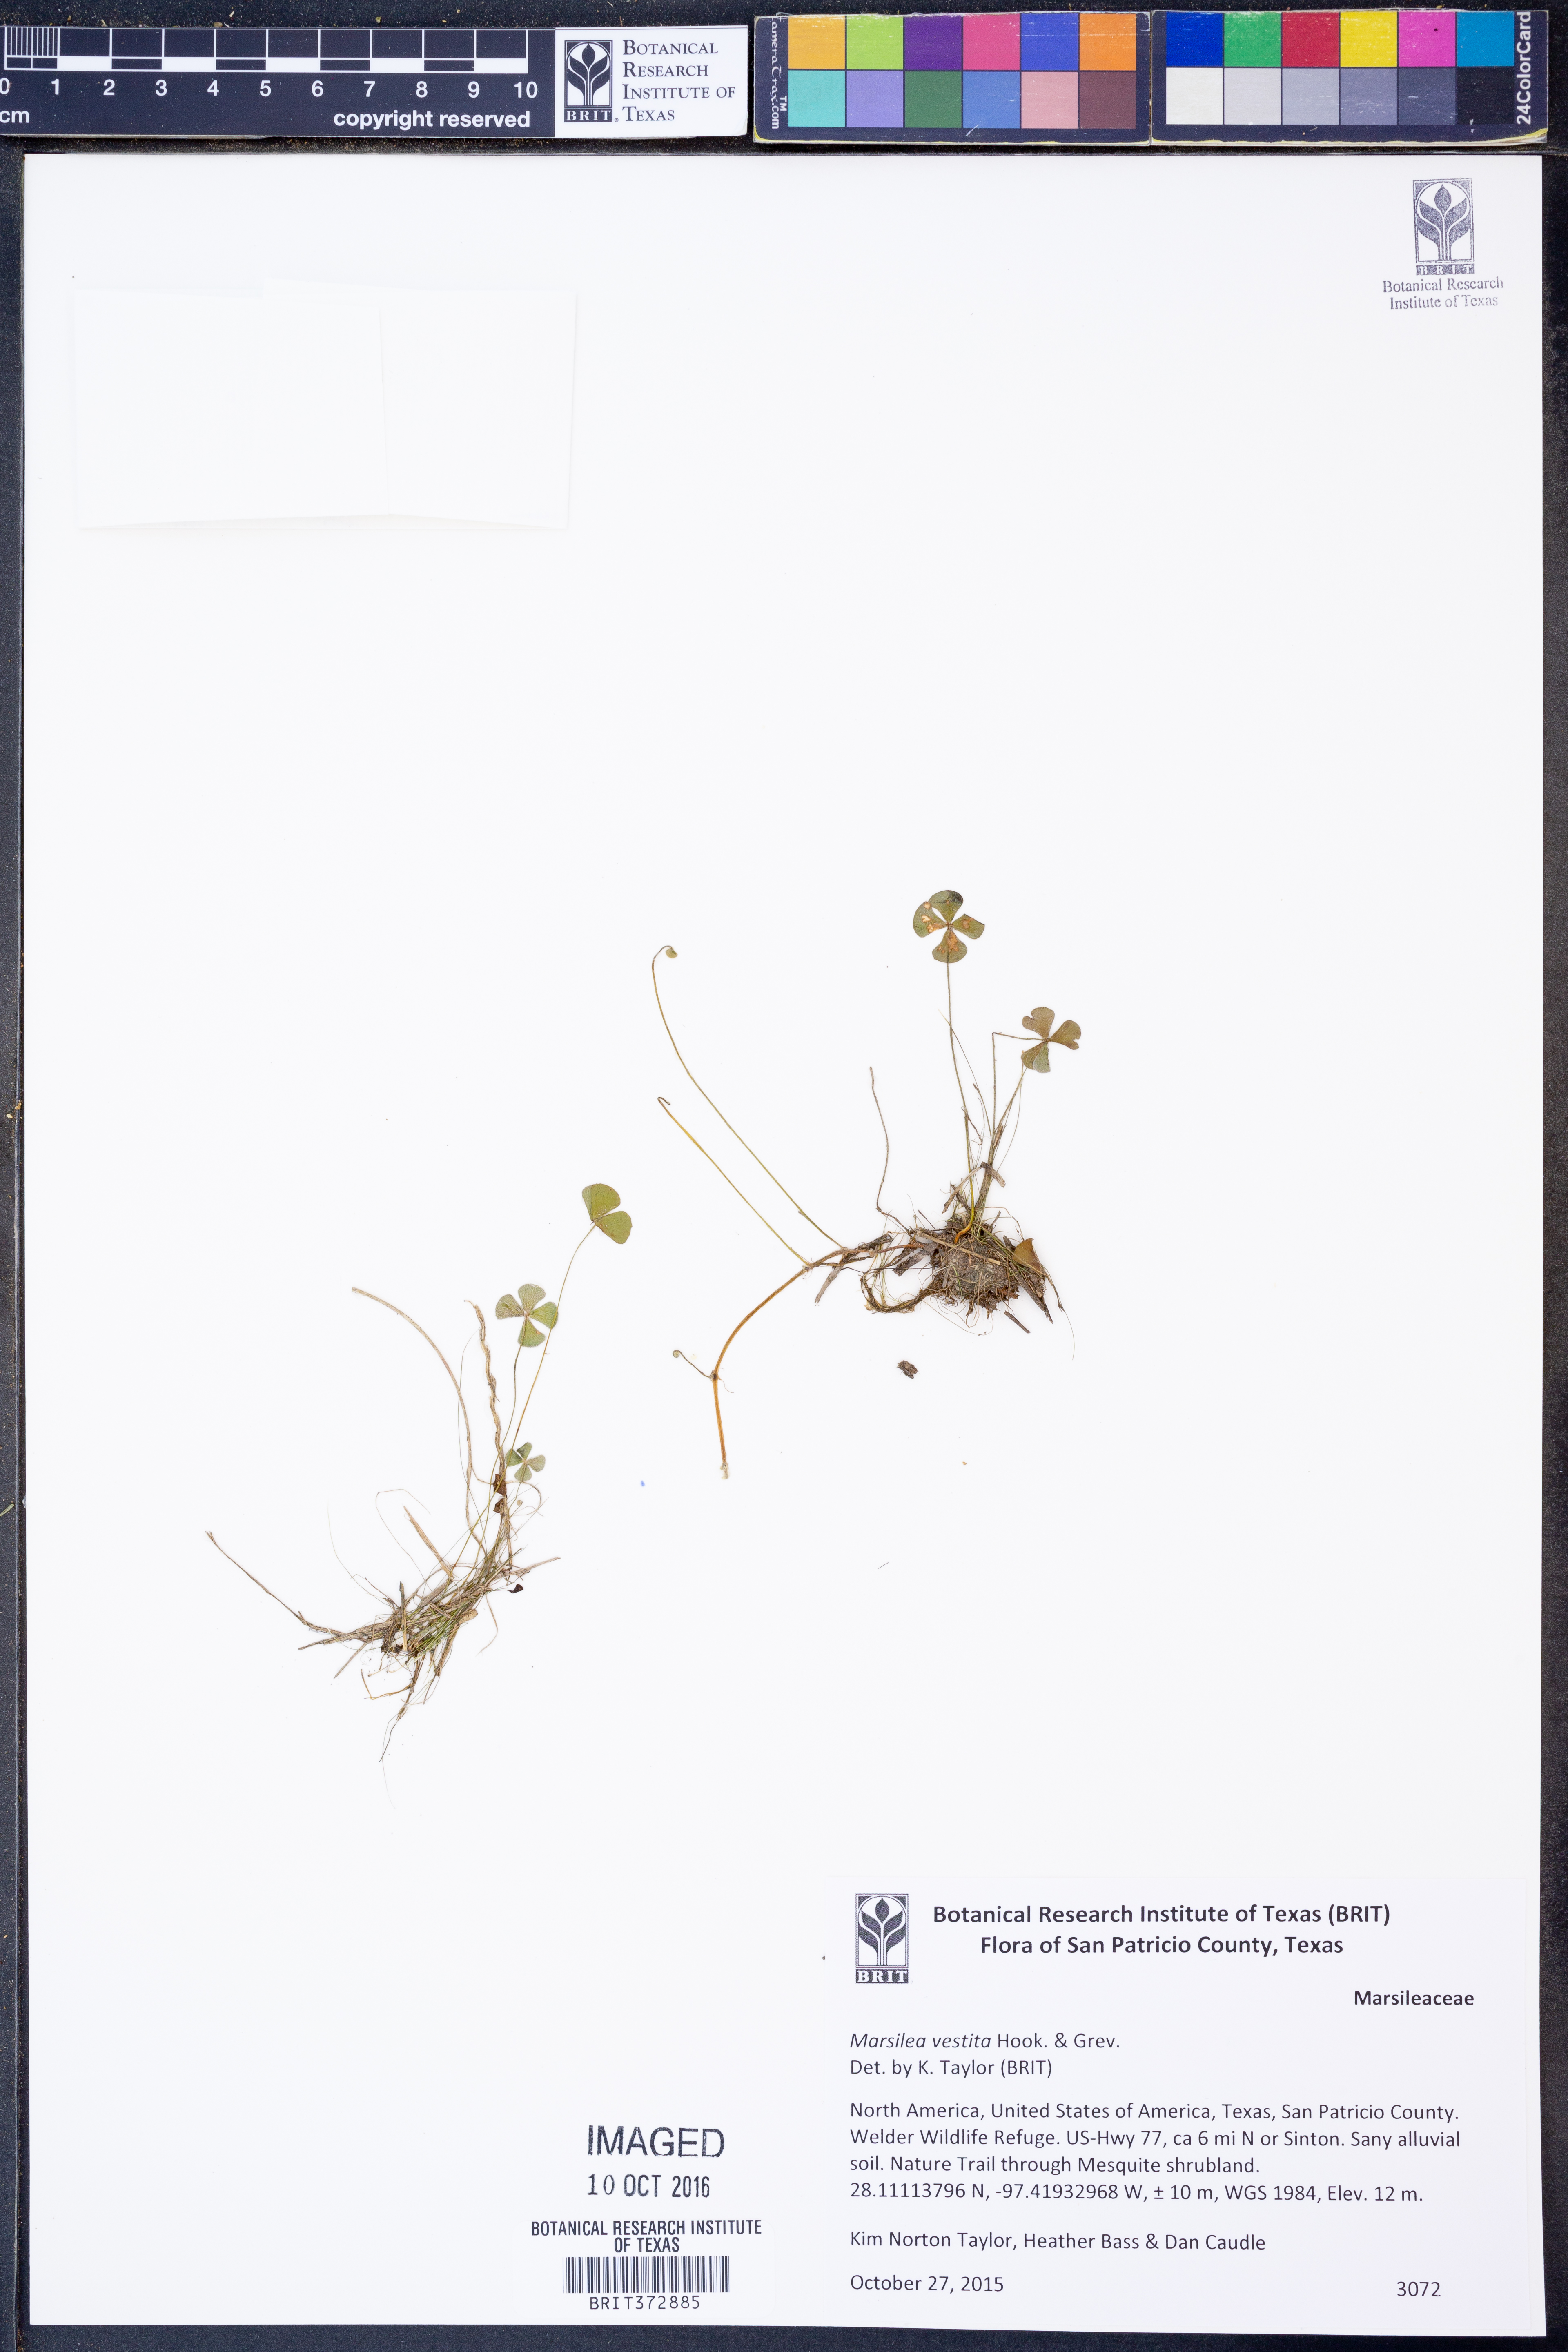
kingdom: Plantae
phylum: Tracheophyta
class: Polypodiopsida
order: Salviniales
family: Marsileaceae
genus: Marsilea
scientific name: Marsilea vestita
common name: Hooked-pepperwort
